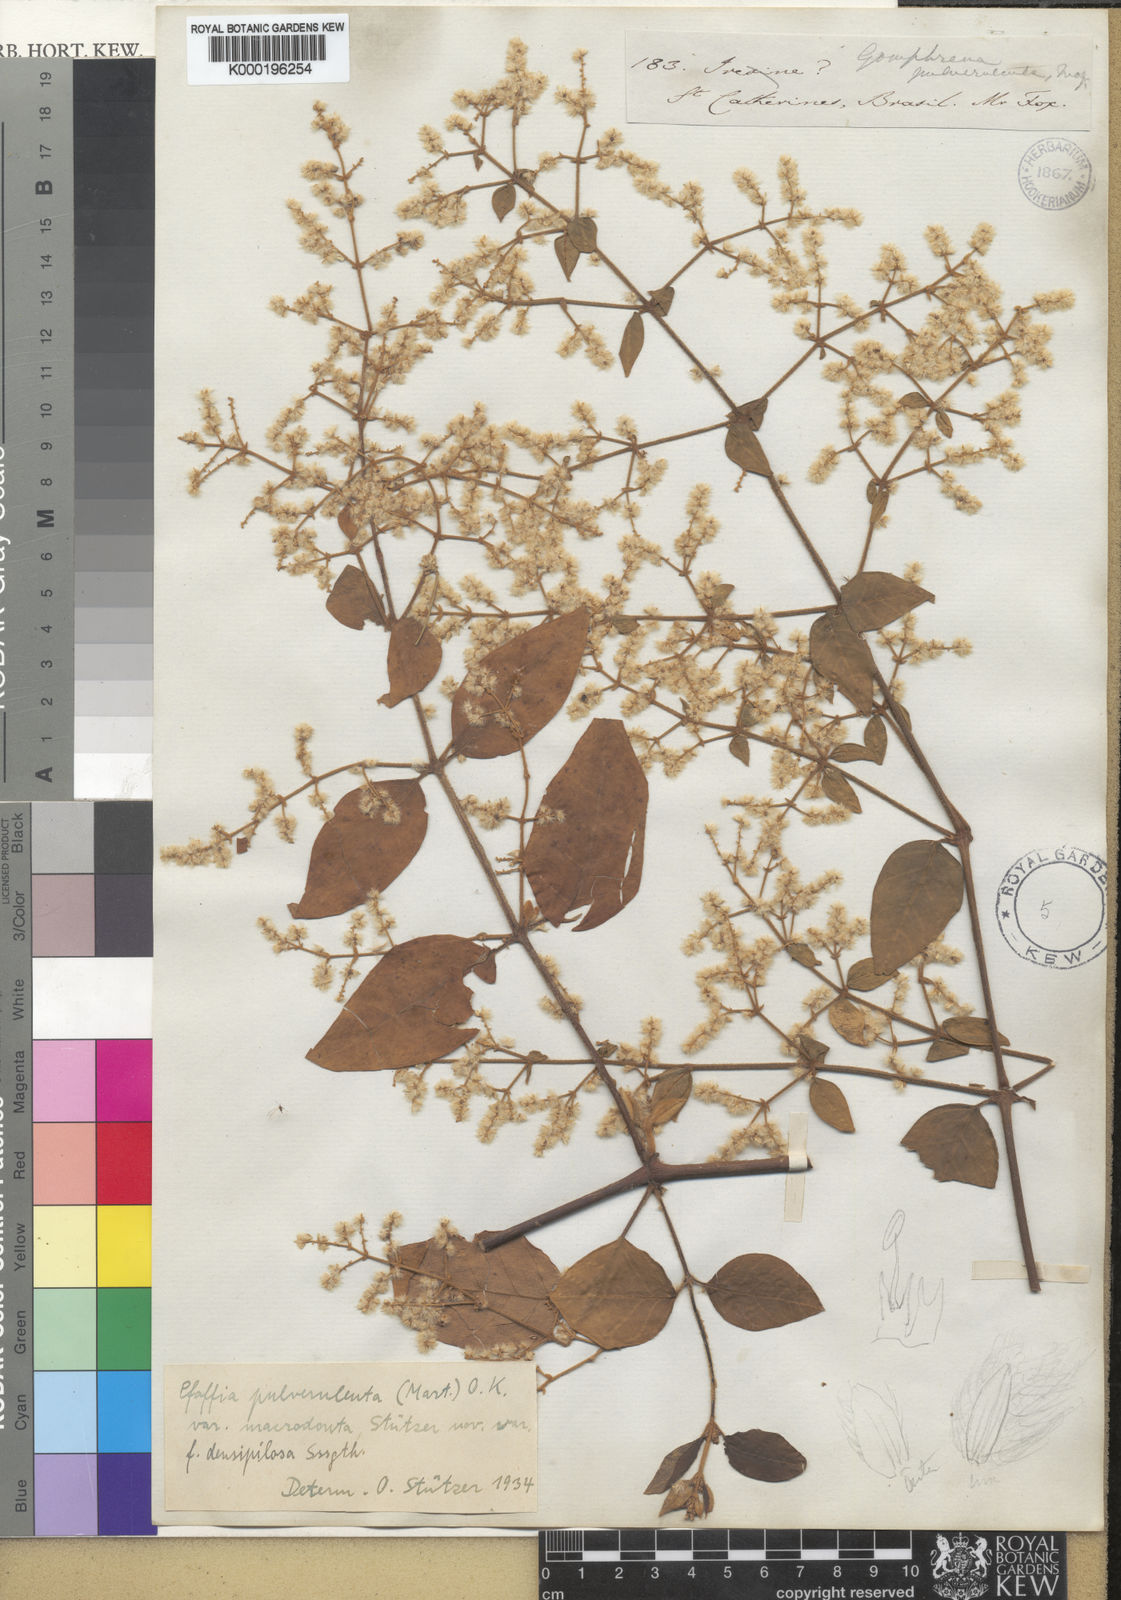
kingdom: Plantae
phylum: Tracheophyta
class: Magnoliopsida
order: Caryophyllales
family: Amaranthaceae
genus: Hebanthe
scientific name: Hebanthe pulverulenta
